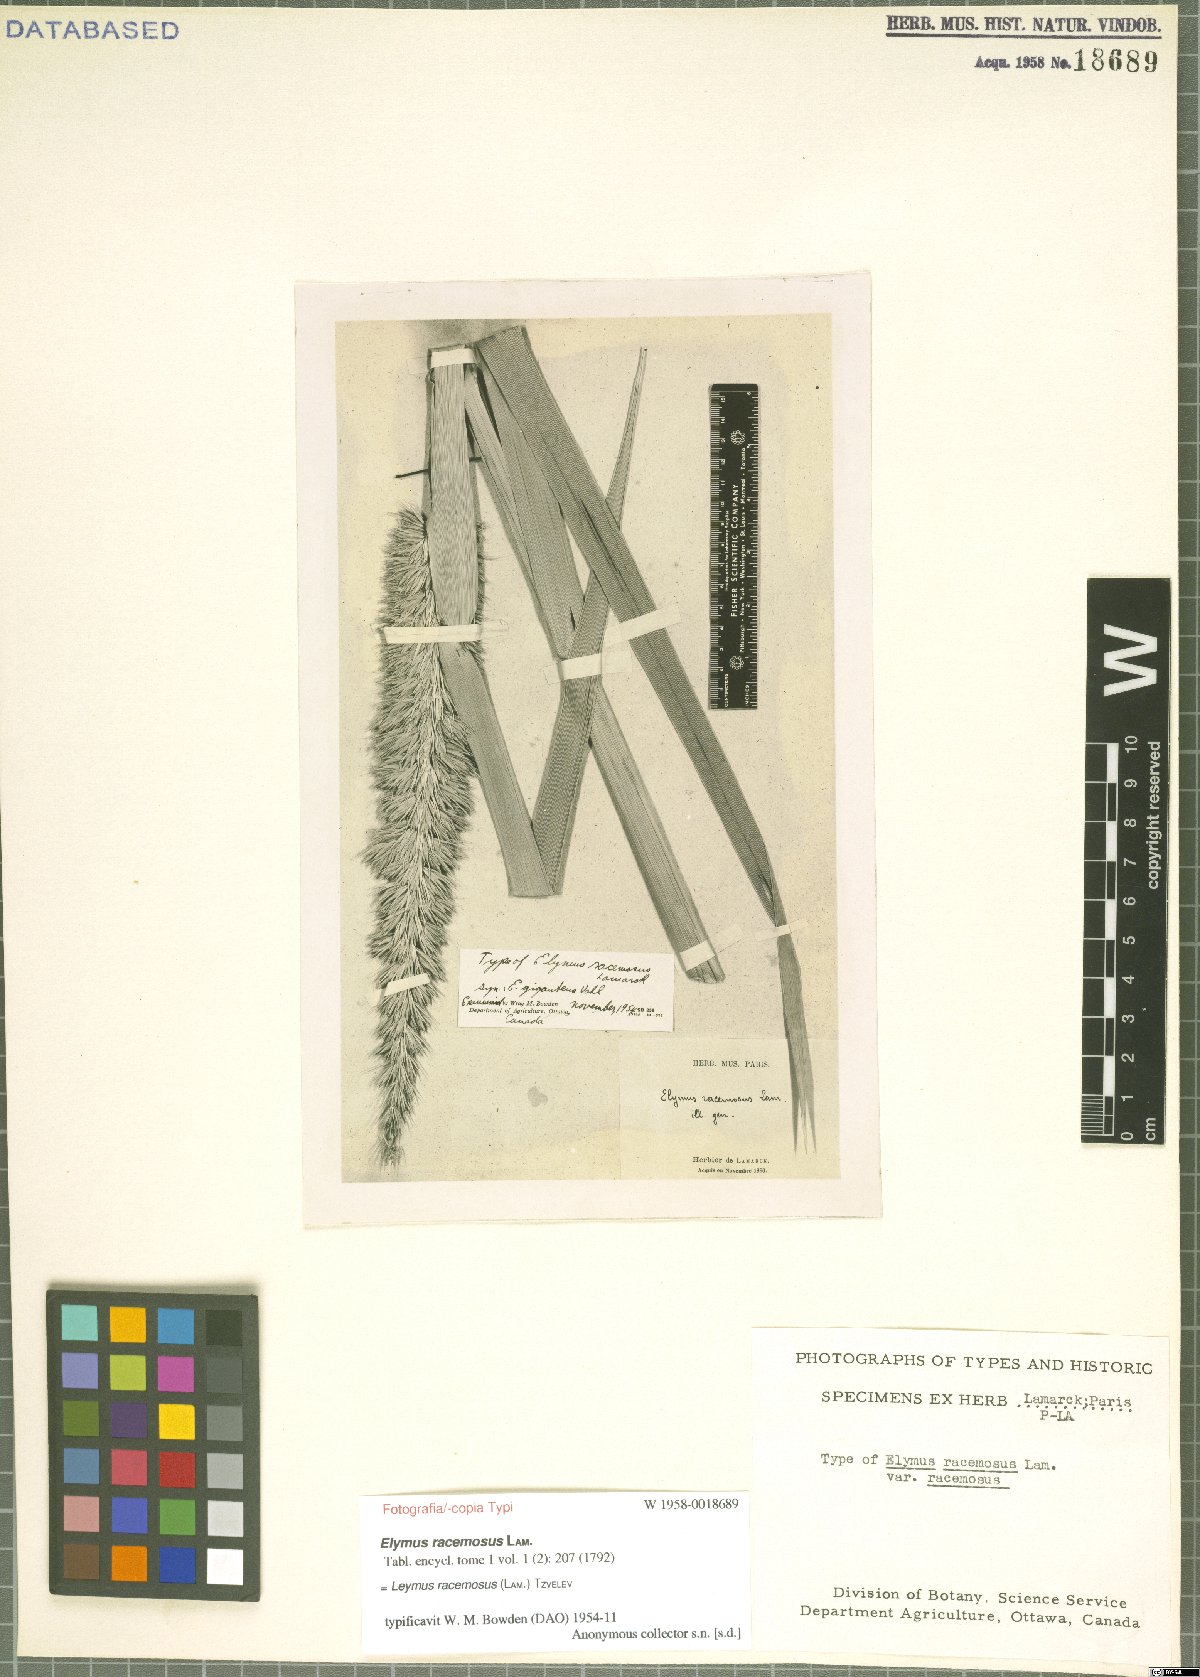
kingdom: Plantae
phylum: Tracheophyta
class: Liliopsida
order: Poales
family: Poaceae
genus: Leymus
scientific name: Leymus racemosus
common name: Mammoth wildrye
